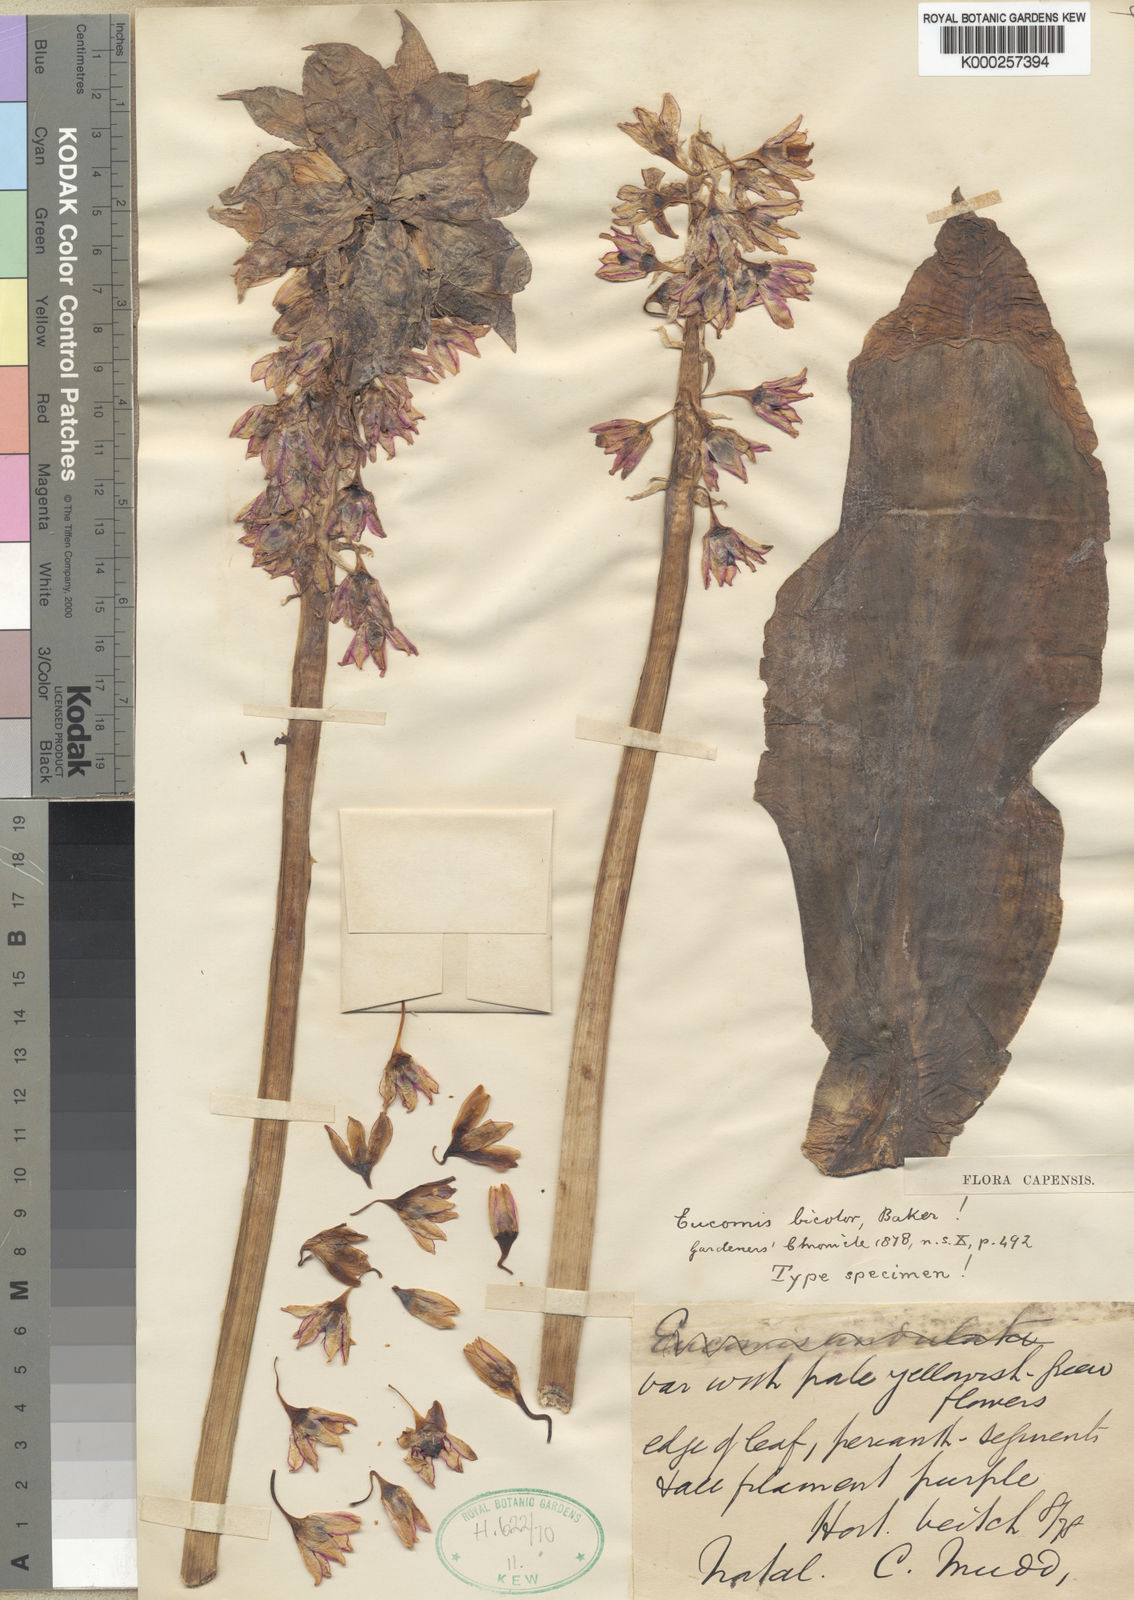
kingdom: Plantae
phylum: Tracheophyta
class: Liliopsida
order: Asparagales
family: Asparagaceae
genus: Eucomis
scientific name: Eucomis bicolor
